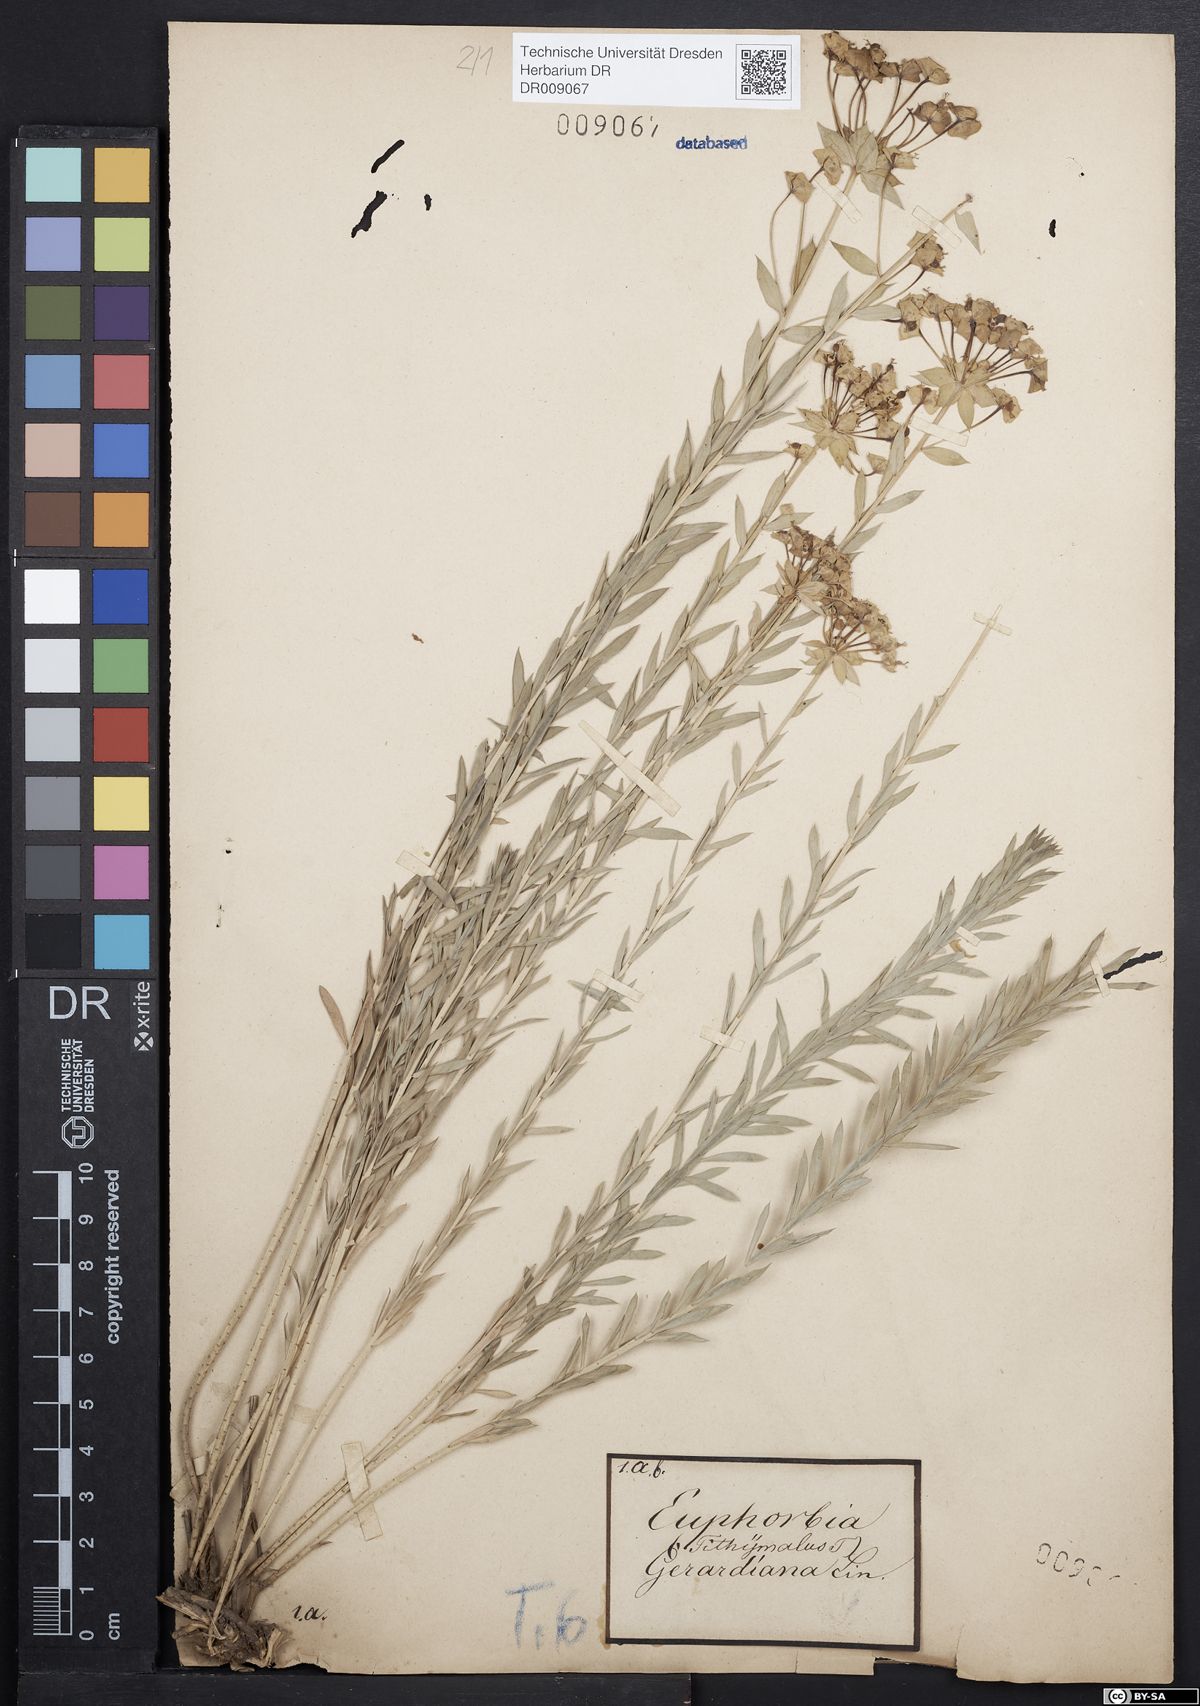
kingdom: Plantae
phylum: Tracheophyta
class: Magnoliopsida
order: Malpighiales
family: Euphorbiaceae
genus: Euphorbia
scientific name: Euphorbia seguieriana
